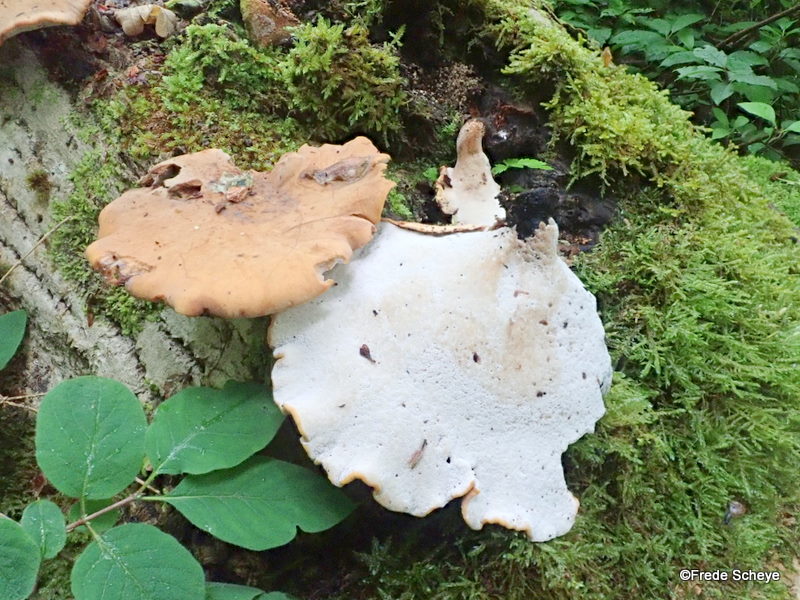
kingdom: Fungi
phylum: Basidiomycota
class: Agaricomycetes
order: Polyporales
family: Polyporaceae
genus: Cerioporus
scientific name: Cerioporus varius
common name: foranderlig stilkporesvamp
